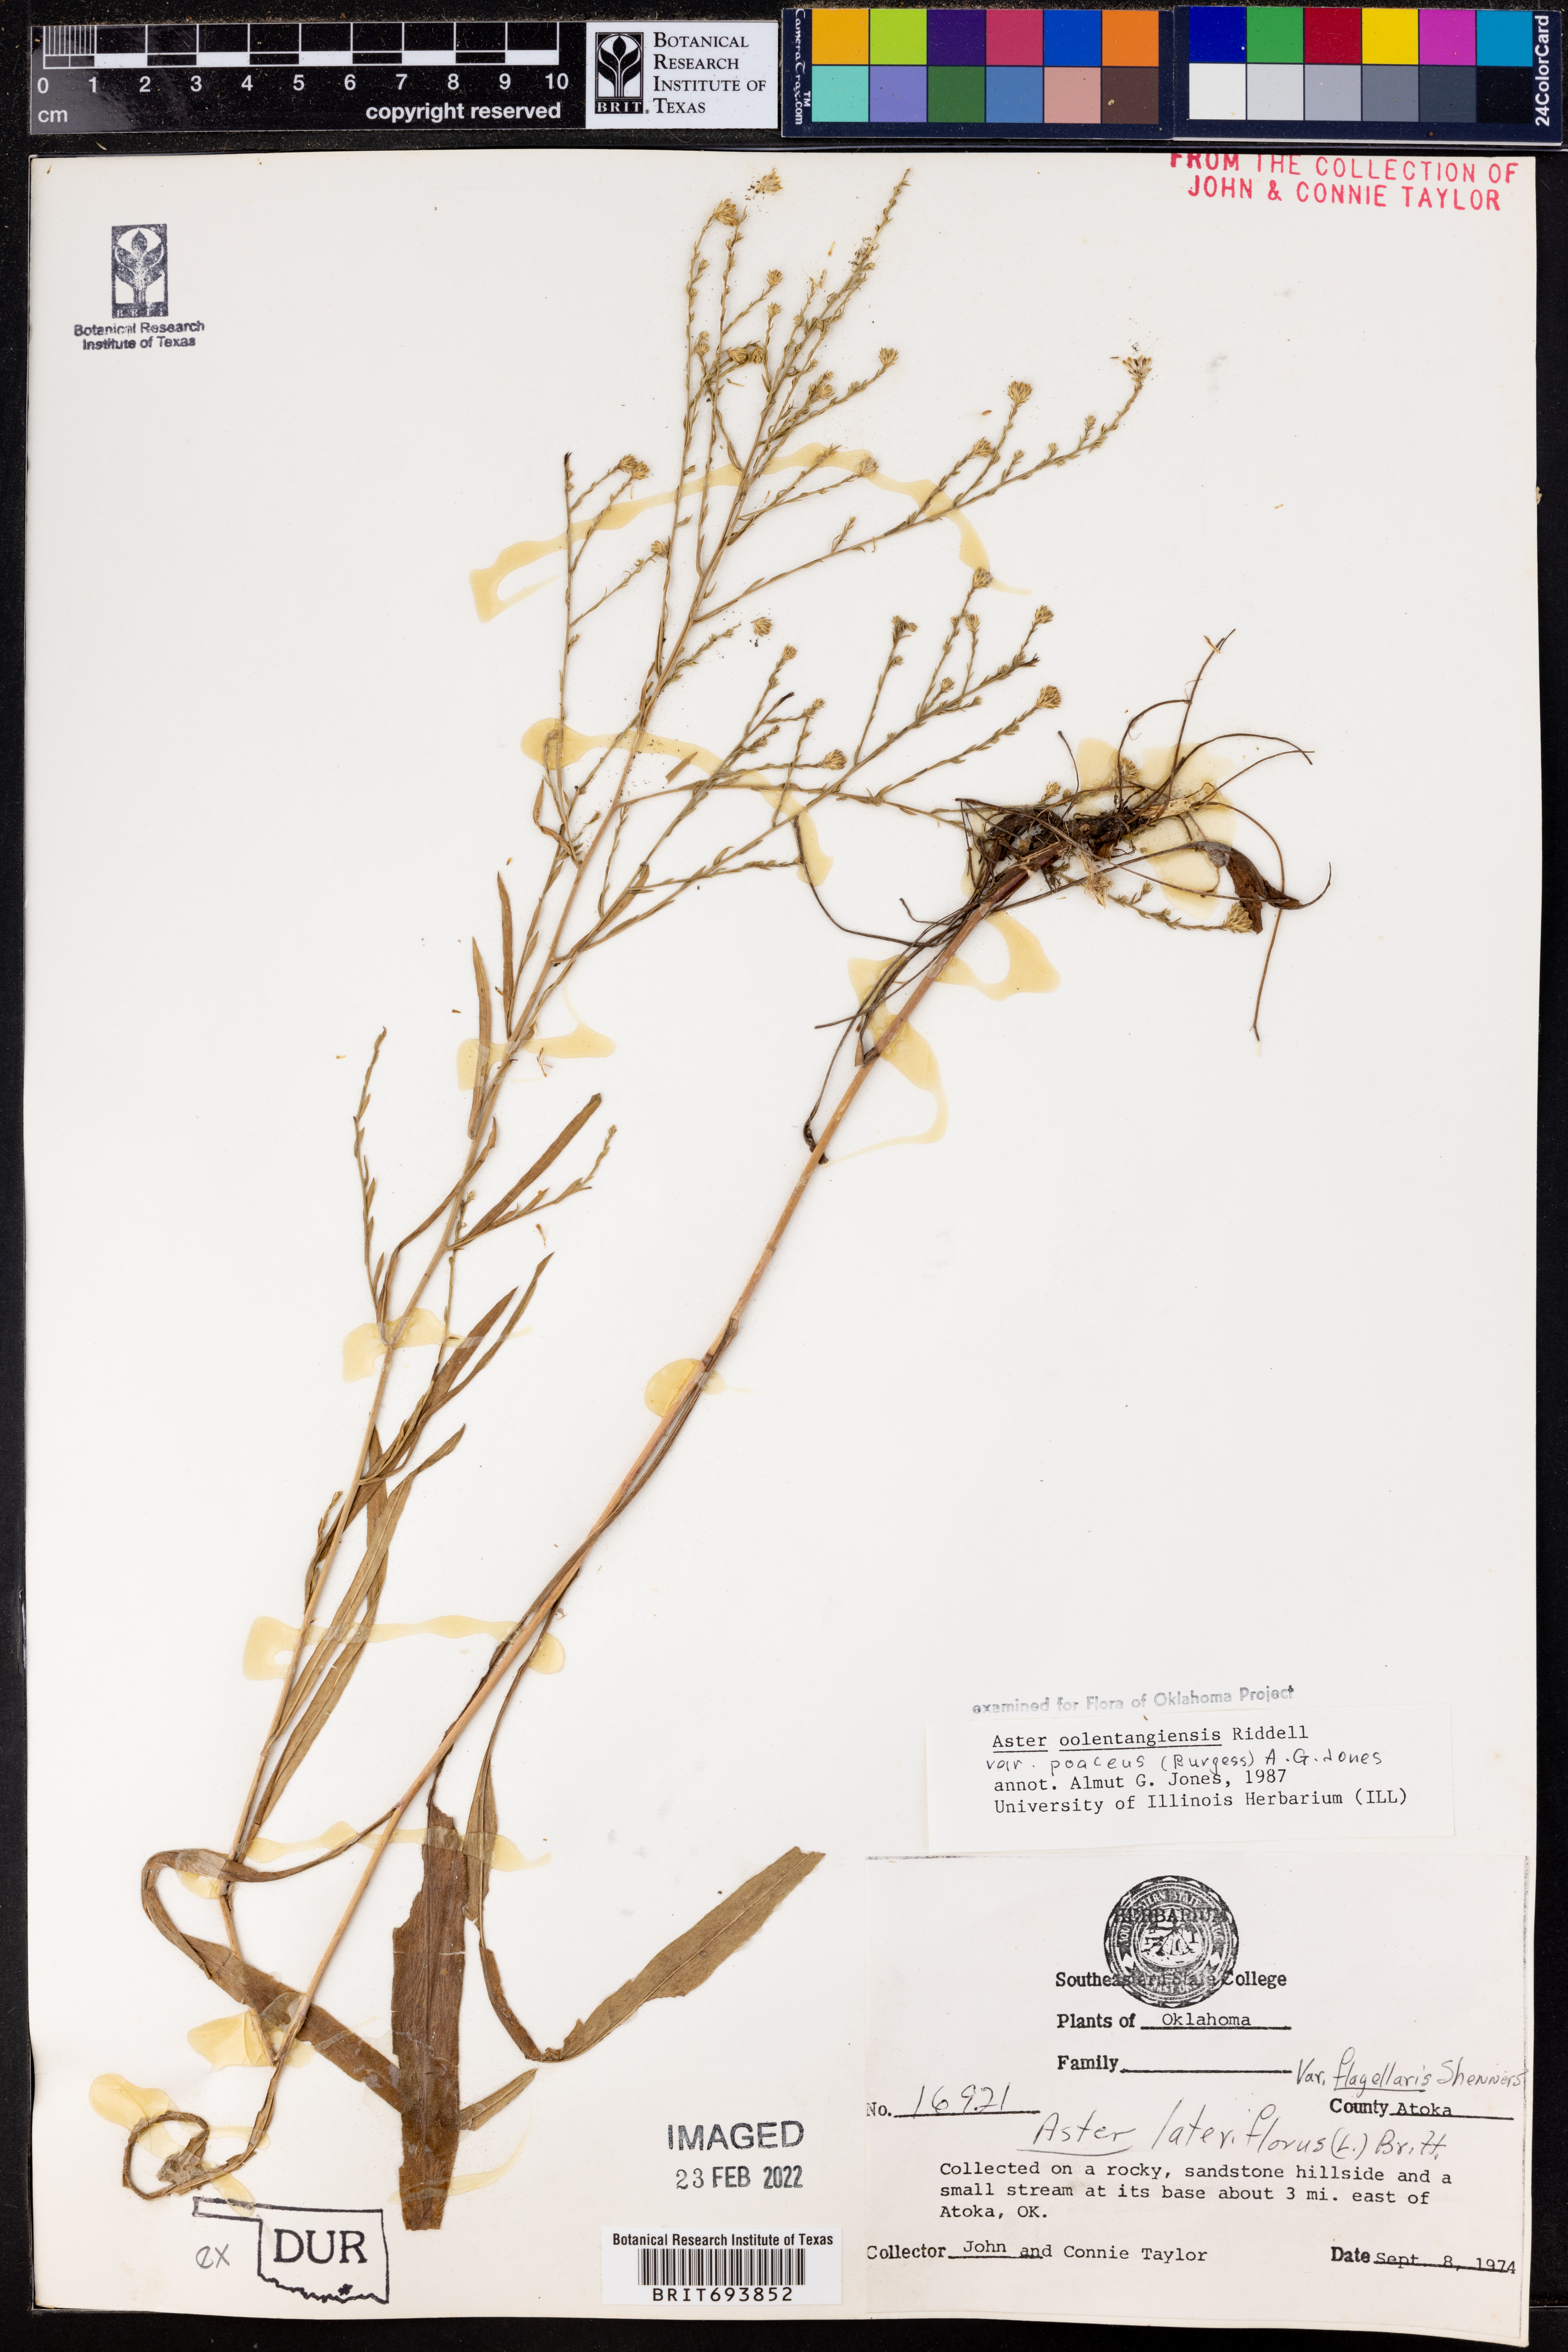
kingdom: Plantae
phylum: Tracheophyta
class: Magnoliopsida
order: Asterales
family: Asteraceae
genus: Symphyotrichum
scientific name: Symphyotrichum oolentangiense
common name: Azure aster
